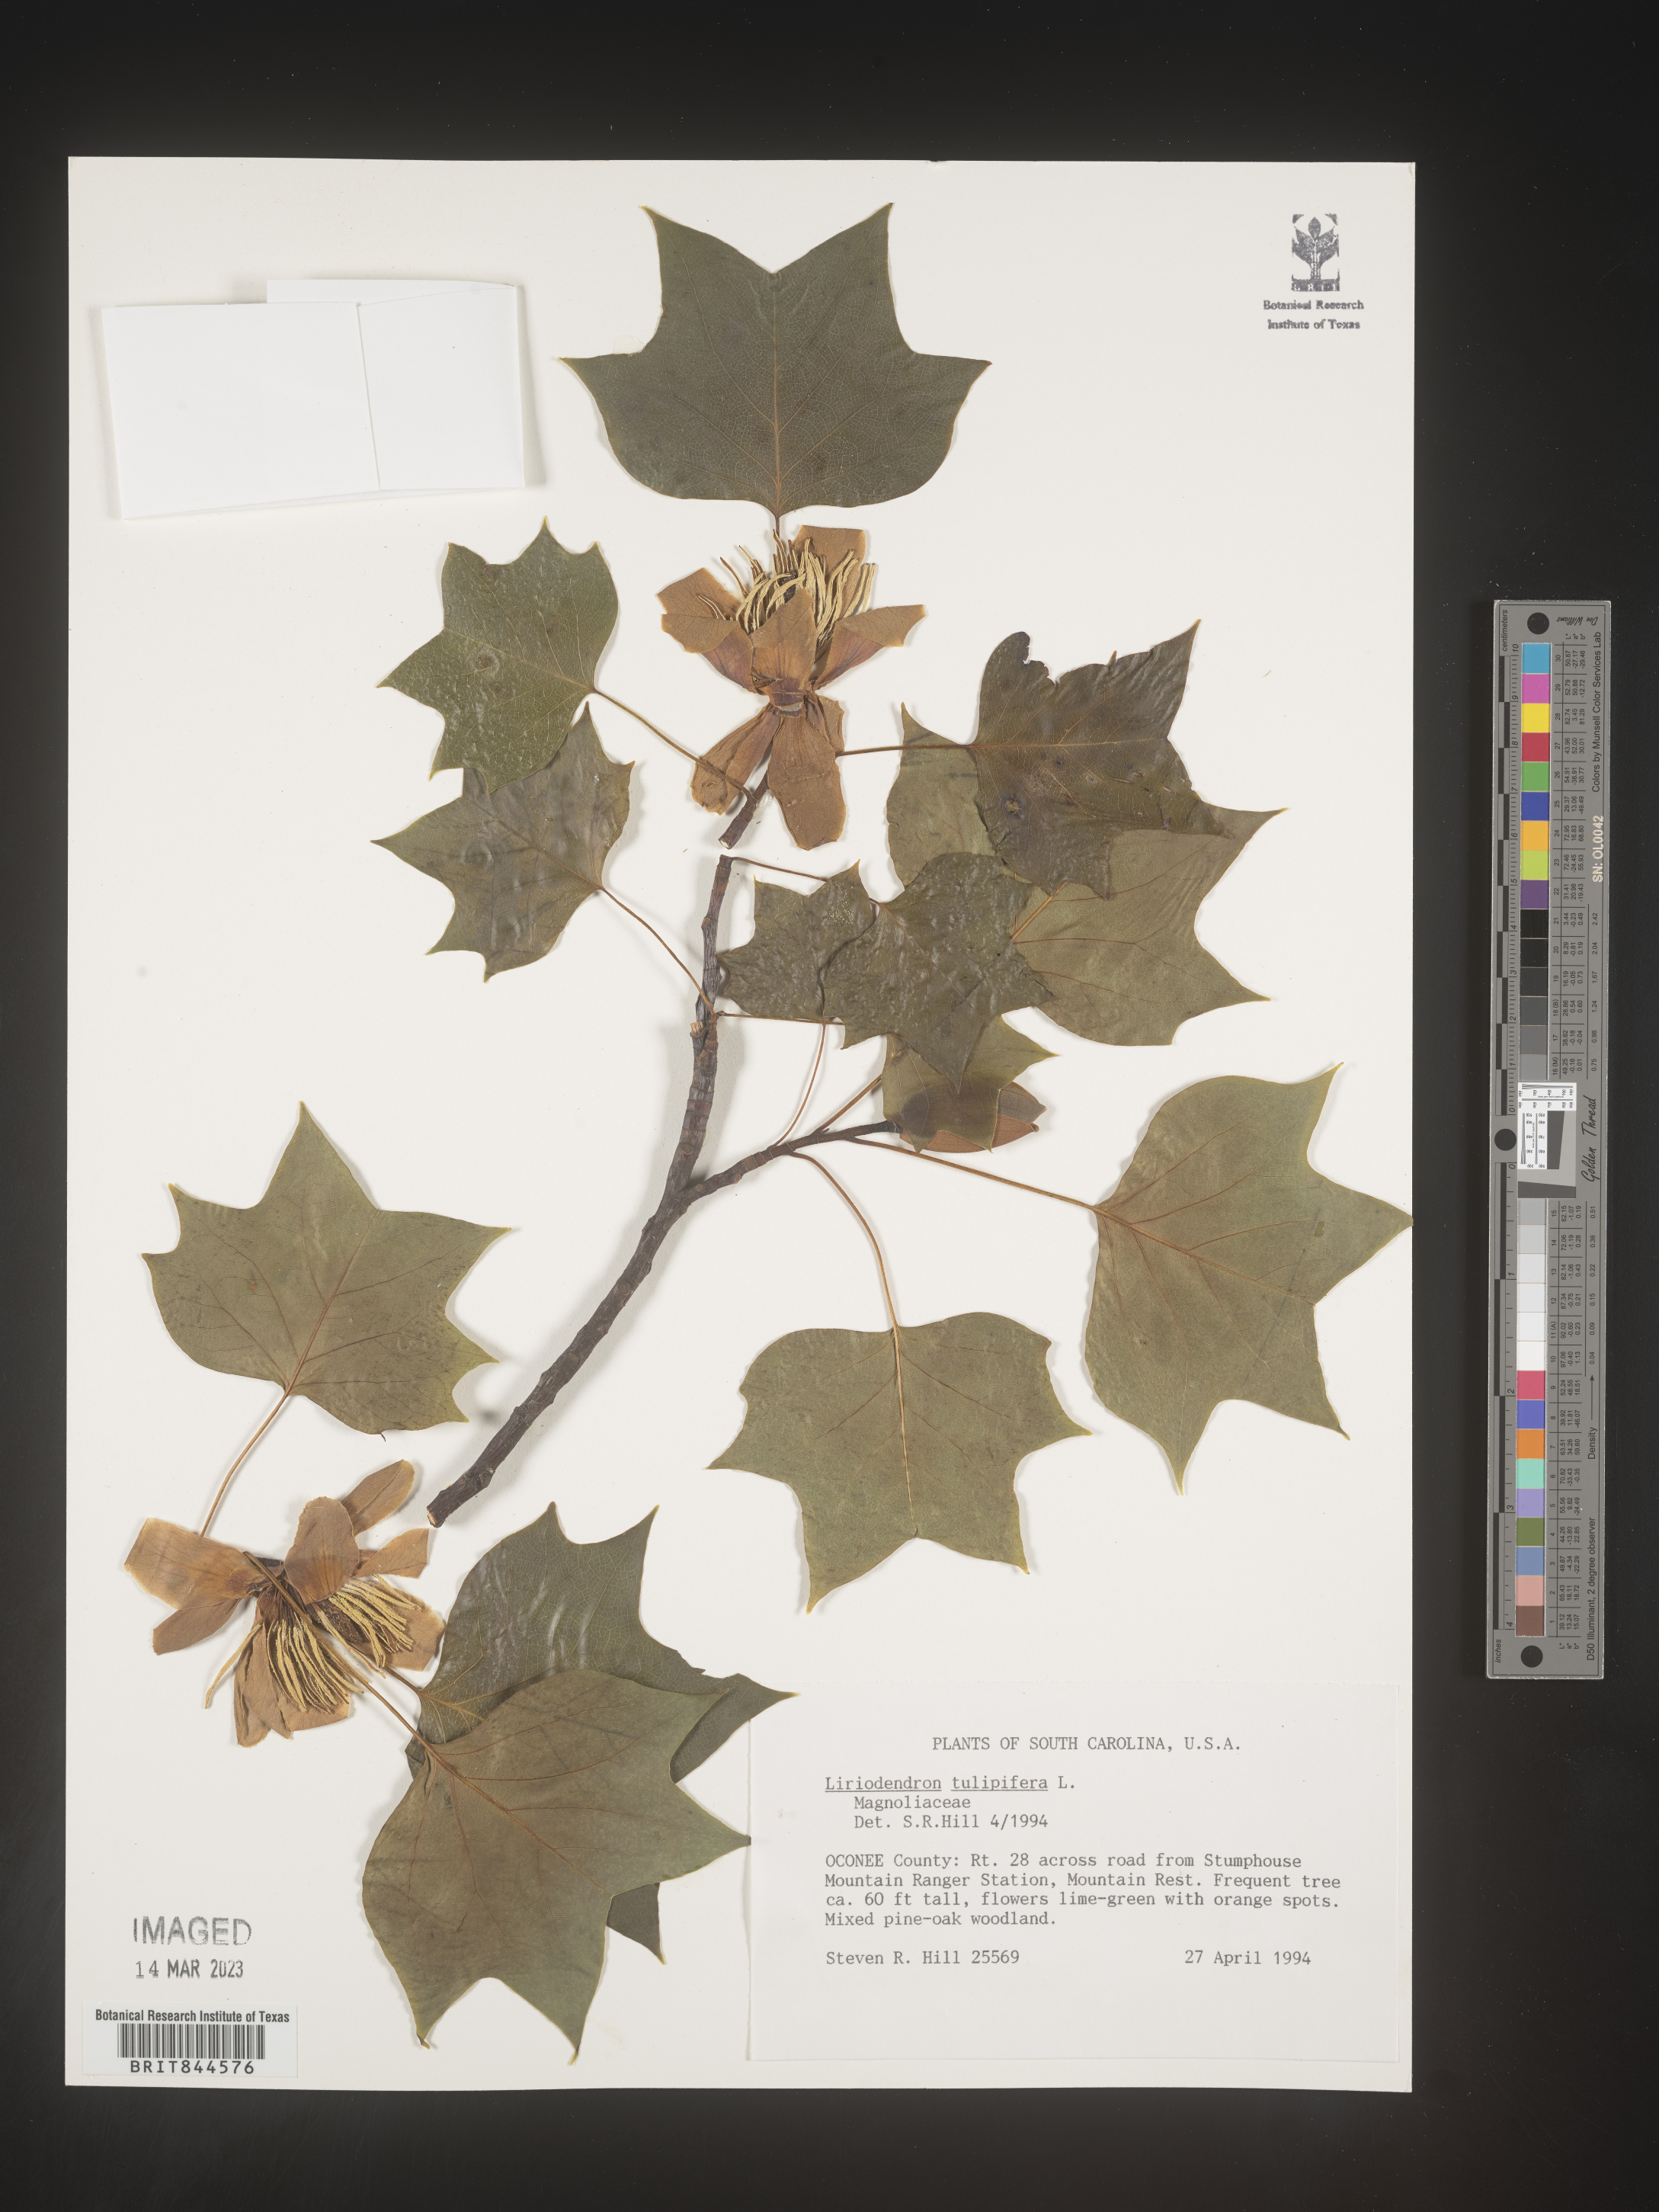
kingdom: Plantae
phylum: Tracheophyta
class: Magnoliopsida
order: Magnoliales
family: Magnoliaceae
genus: Liriodendron
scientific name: Liriodendron tulipifera
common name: Tulip tree
